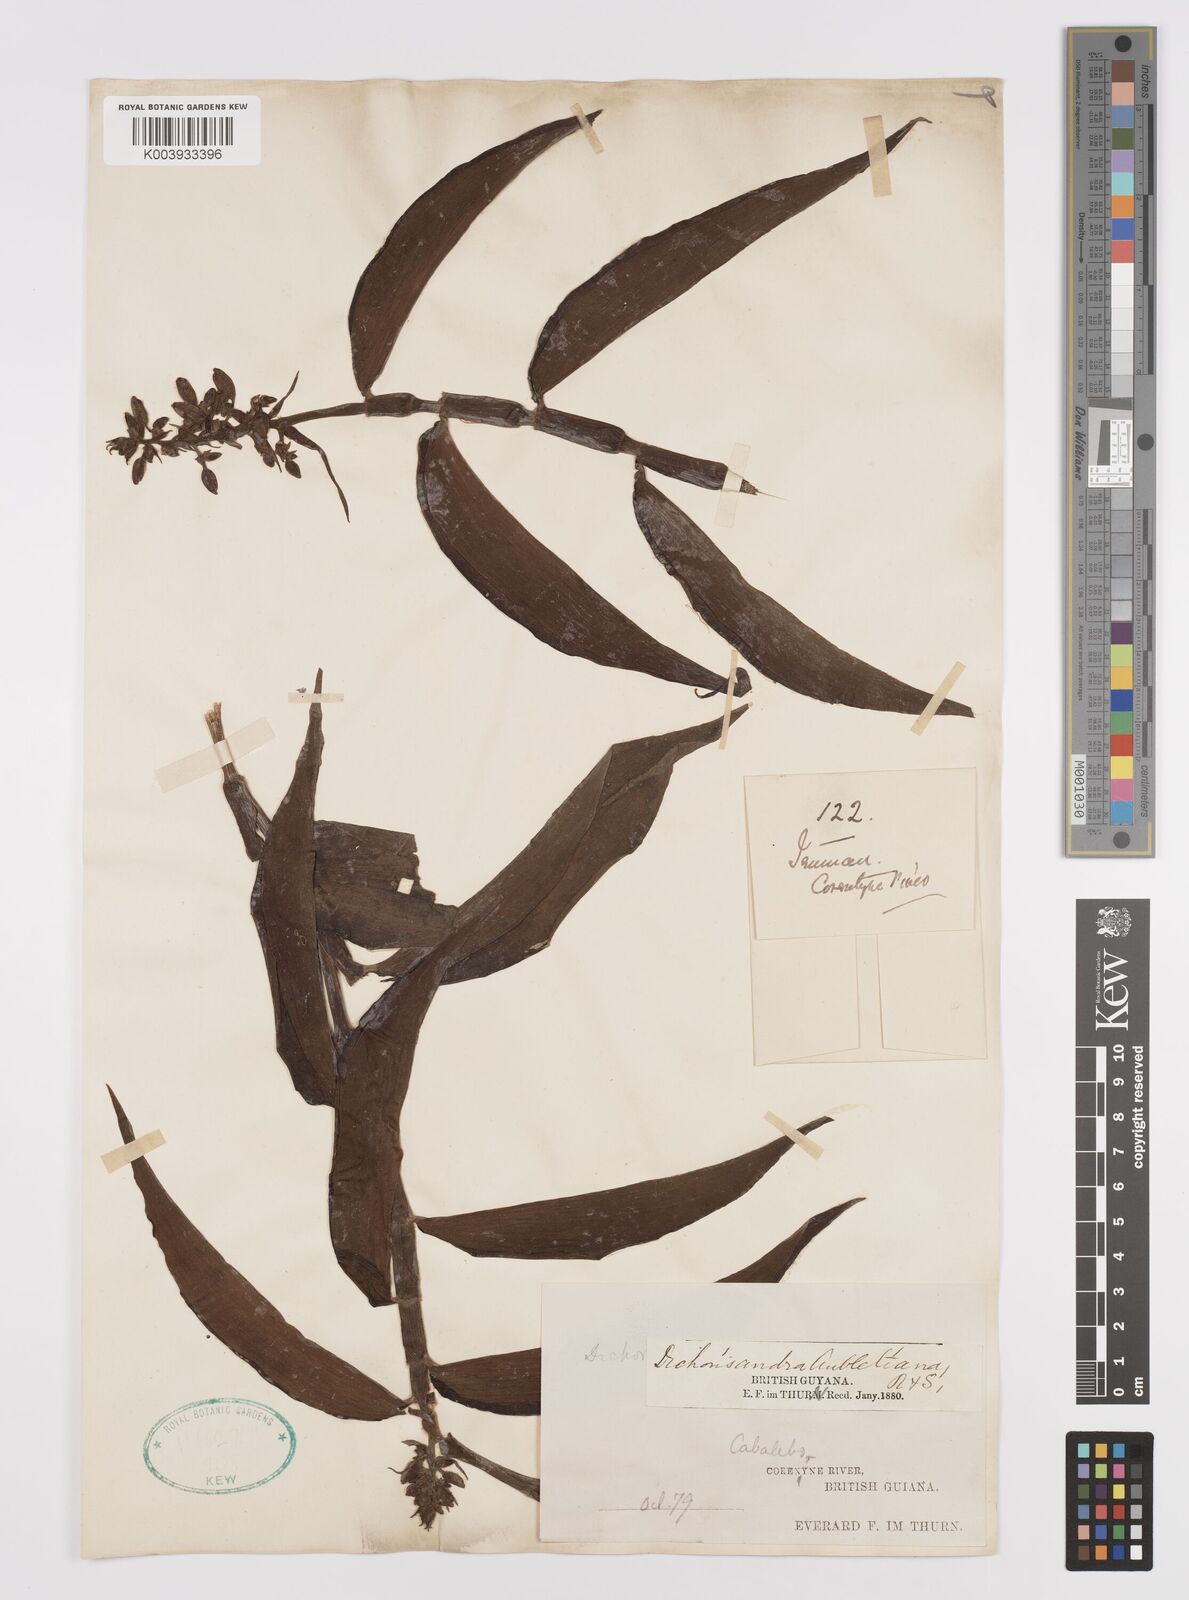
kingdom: Plantae
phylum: Tracheophyta
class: Liliopsida
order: Commelinales
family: Commelinaceae
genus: Dichorisandra
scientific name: Dichorisandra
